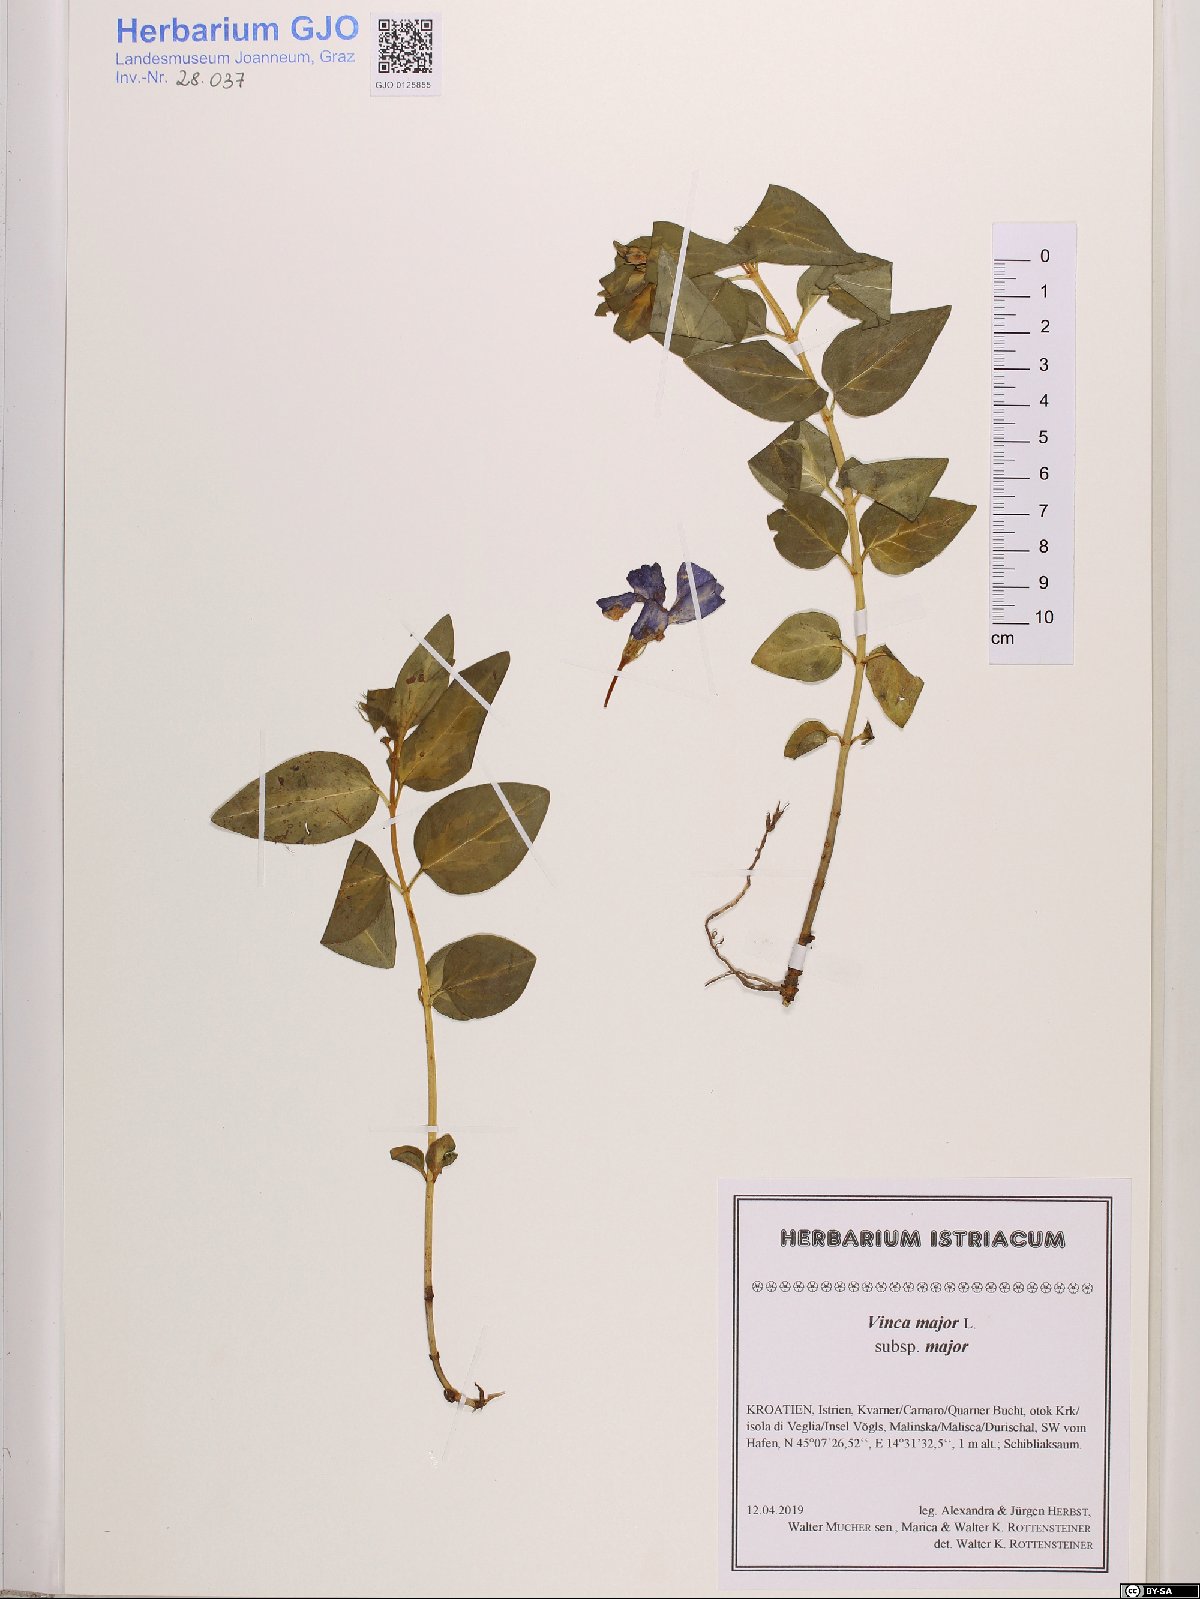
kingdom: Plantae
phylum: Tracheophyta
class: Magnoliopsida
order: Gentianales
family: Apocynaceae
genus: Vinca
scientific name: Vinca major
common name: Greater periwinkle
